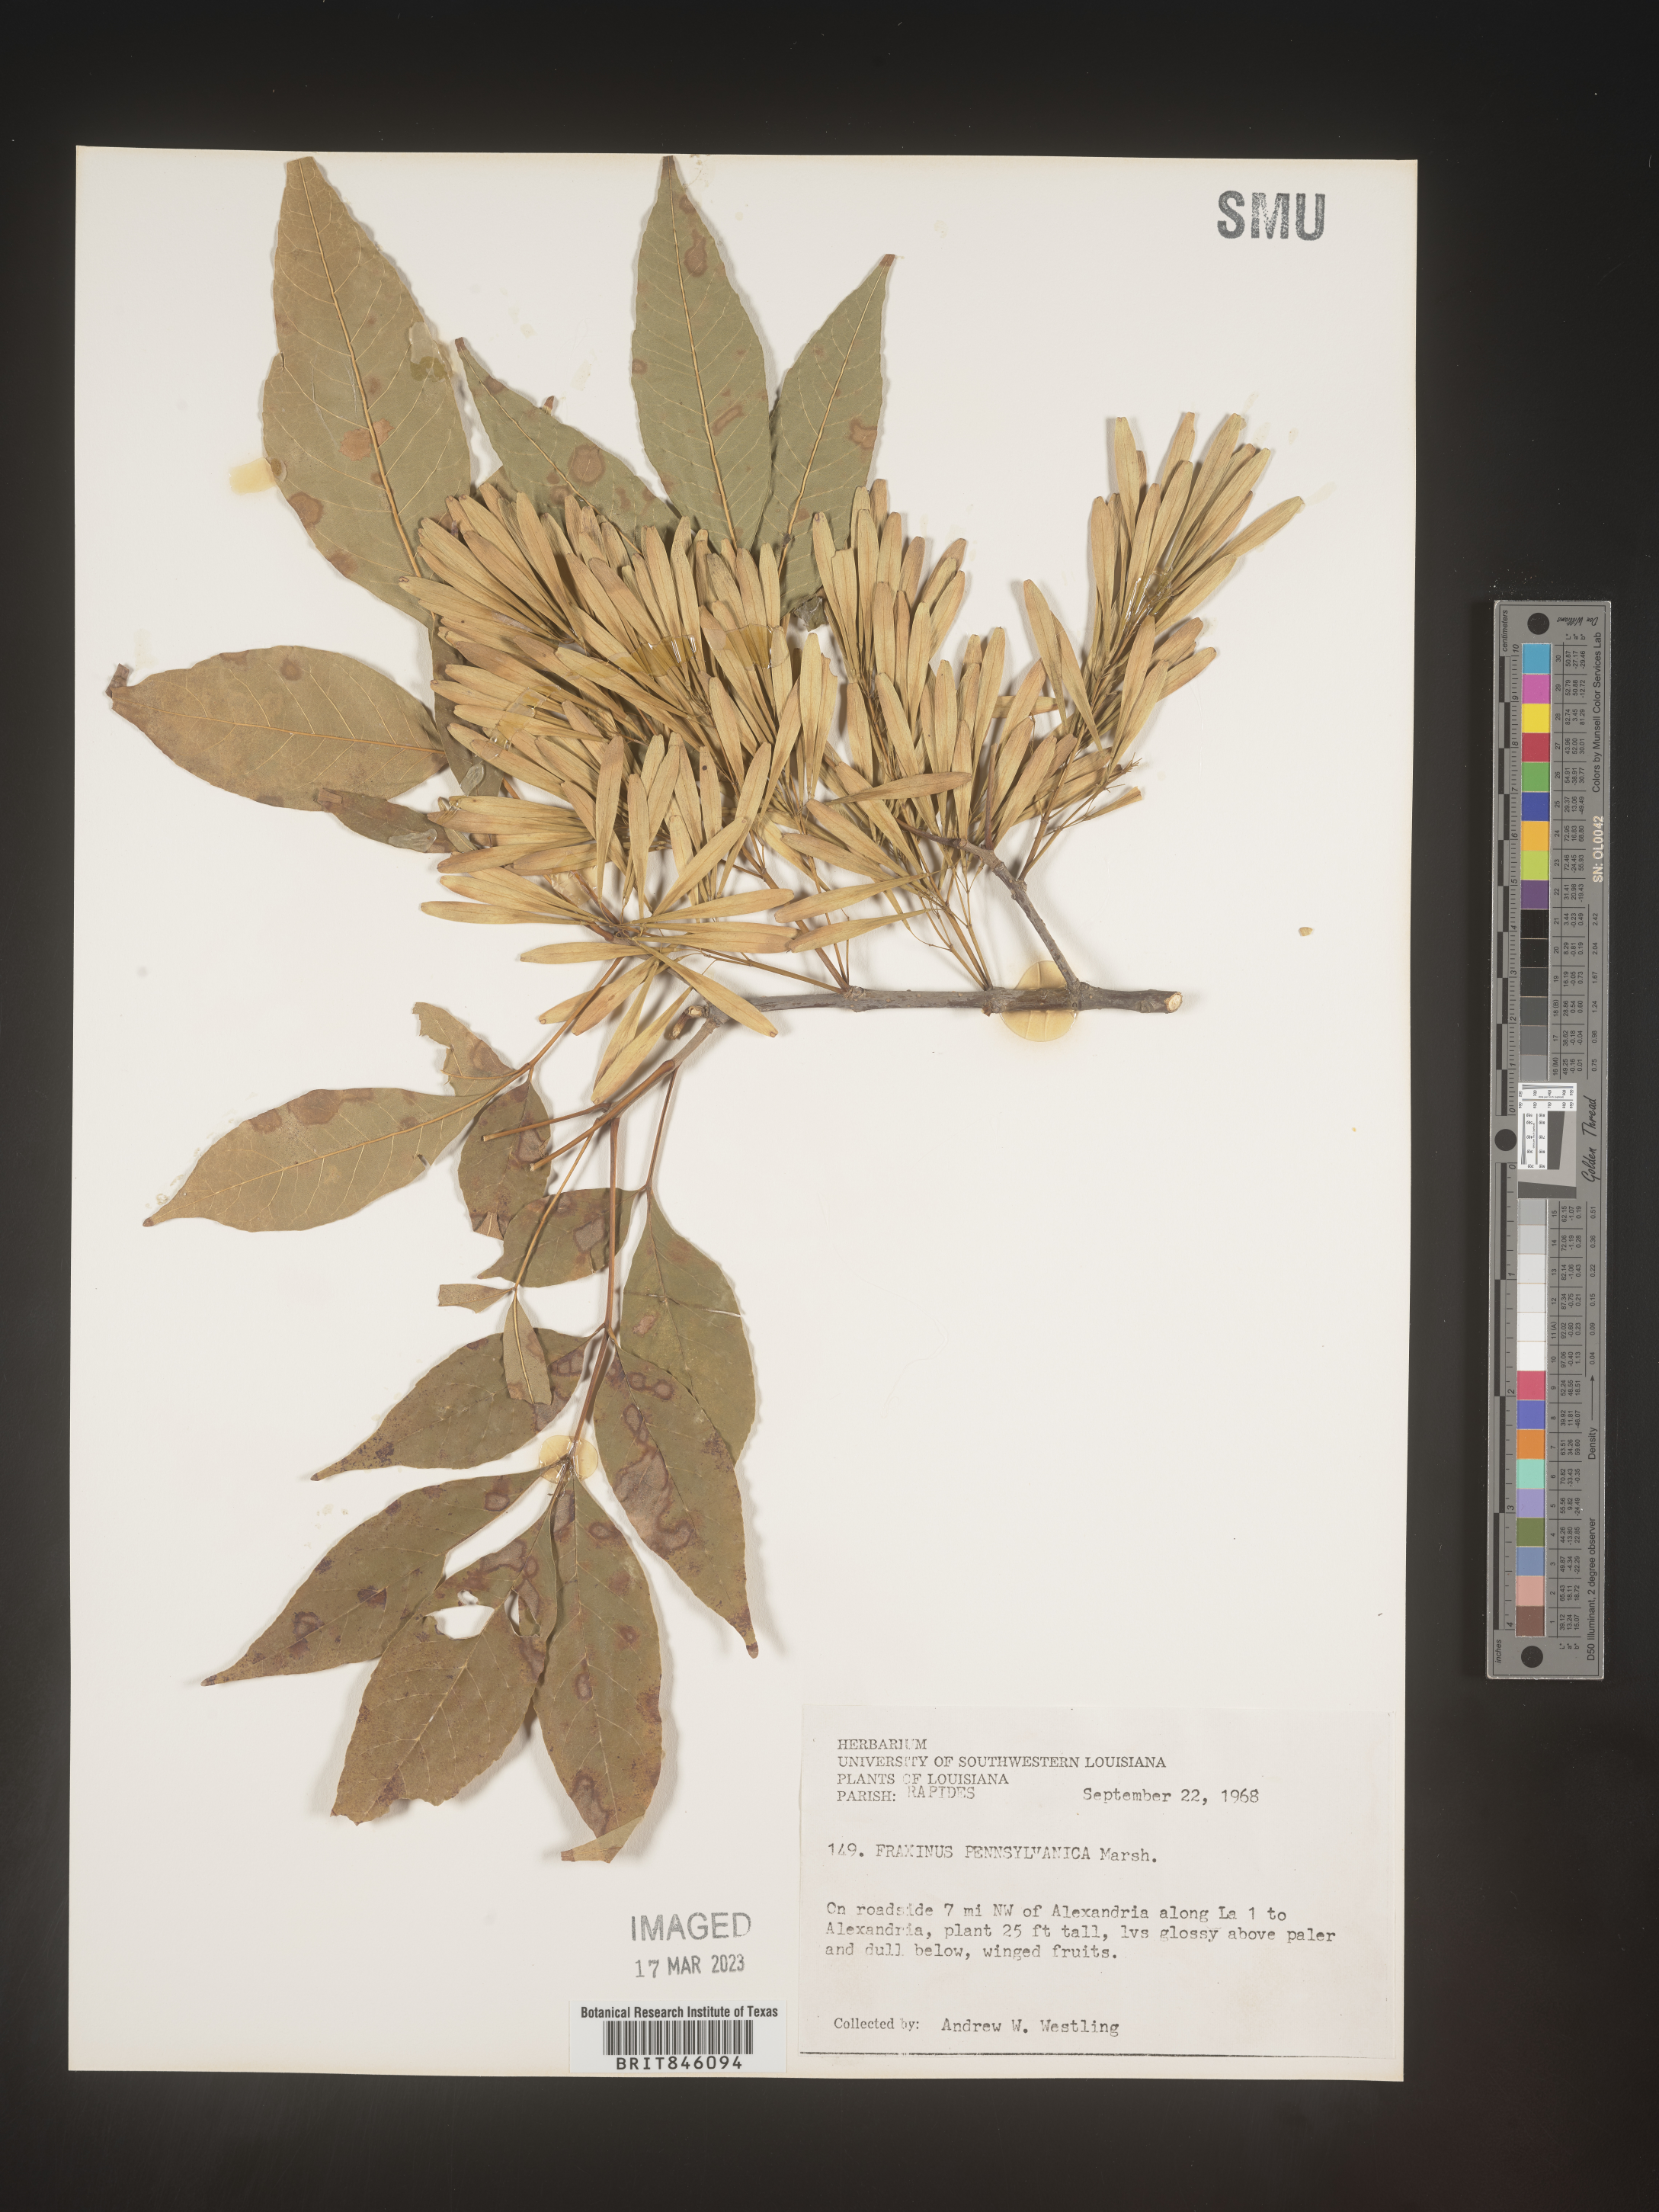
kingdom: Plantae
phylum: Tracheophyta
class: Magnoliopsida
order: Lamiales
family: Oleaceae
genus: Fraxinus
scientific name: Fraxinus pennsylvanica
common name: Green ash
